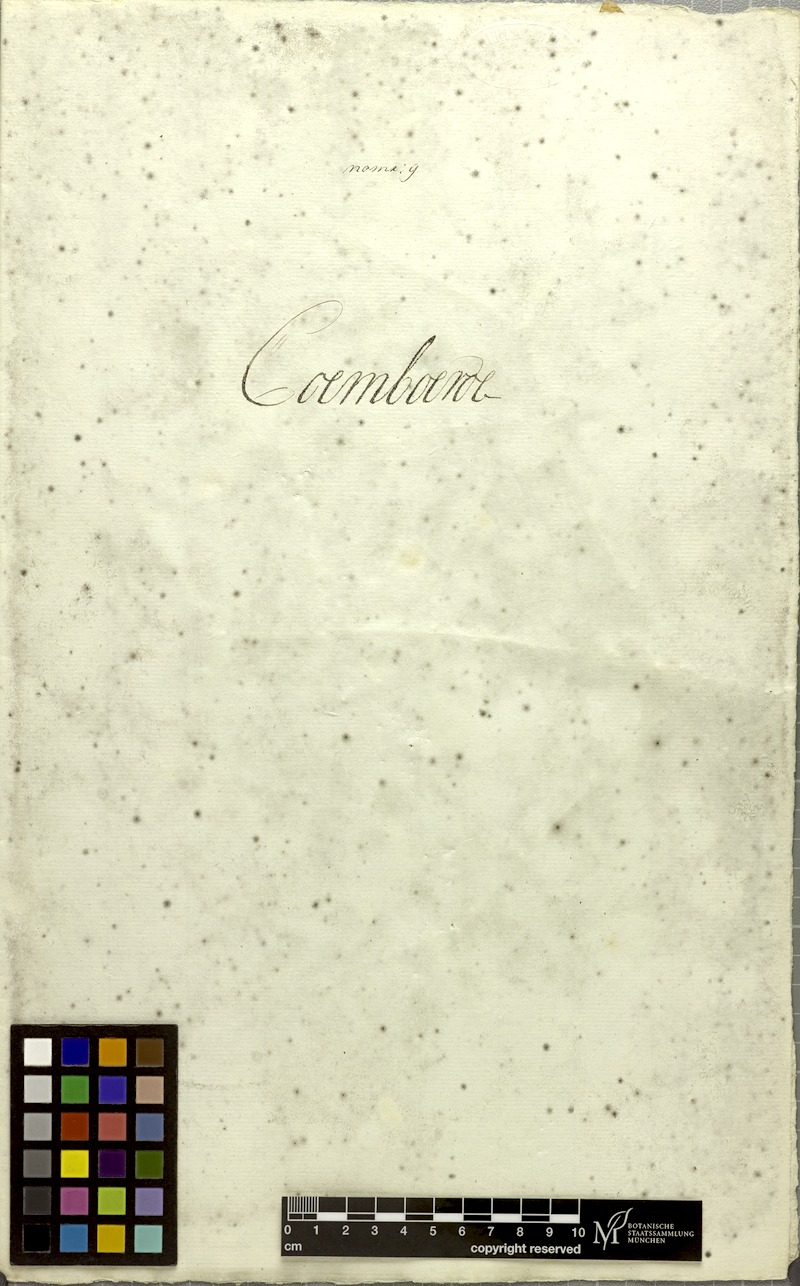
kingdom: Plantae
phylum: Tracheophyta
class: Magnoliopsida
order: Fabales
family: Fabaceae
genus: Guilandina
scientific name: Guilandina bonduc
